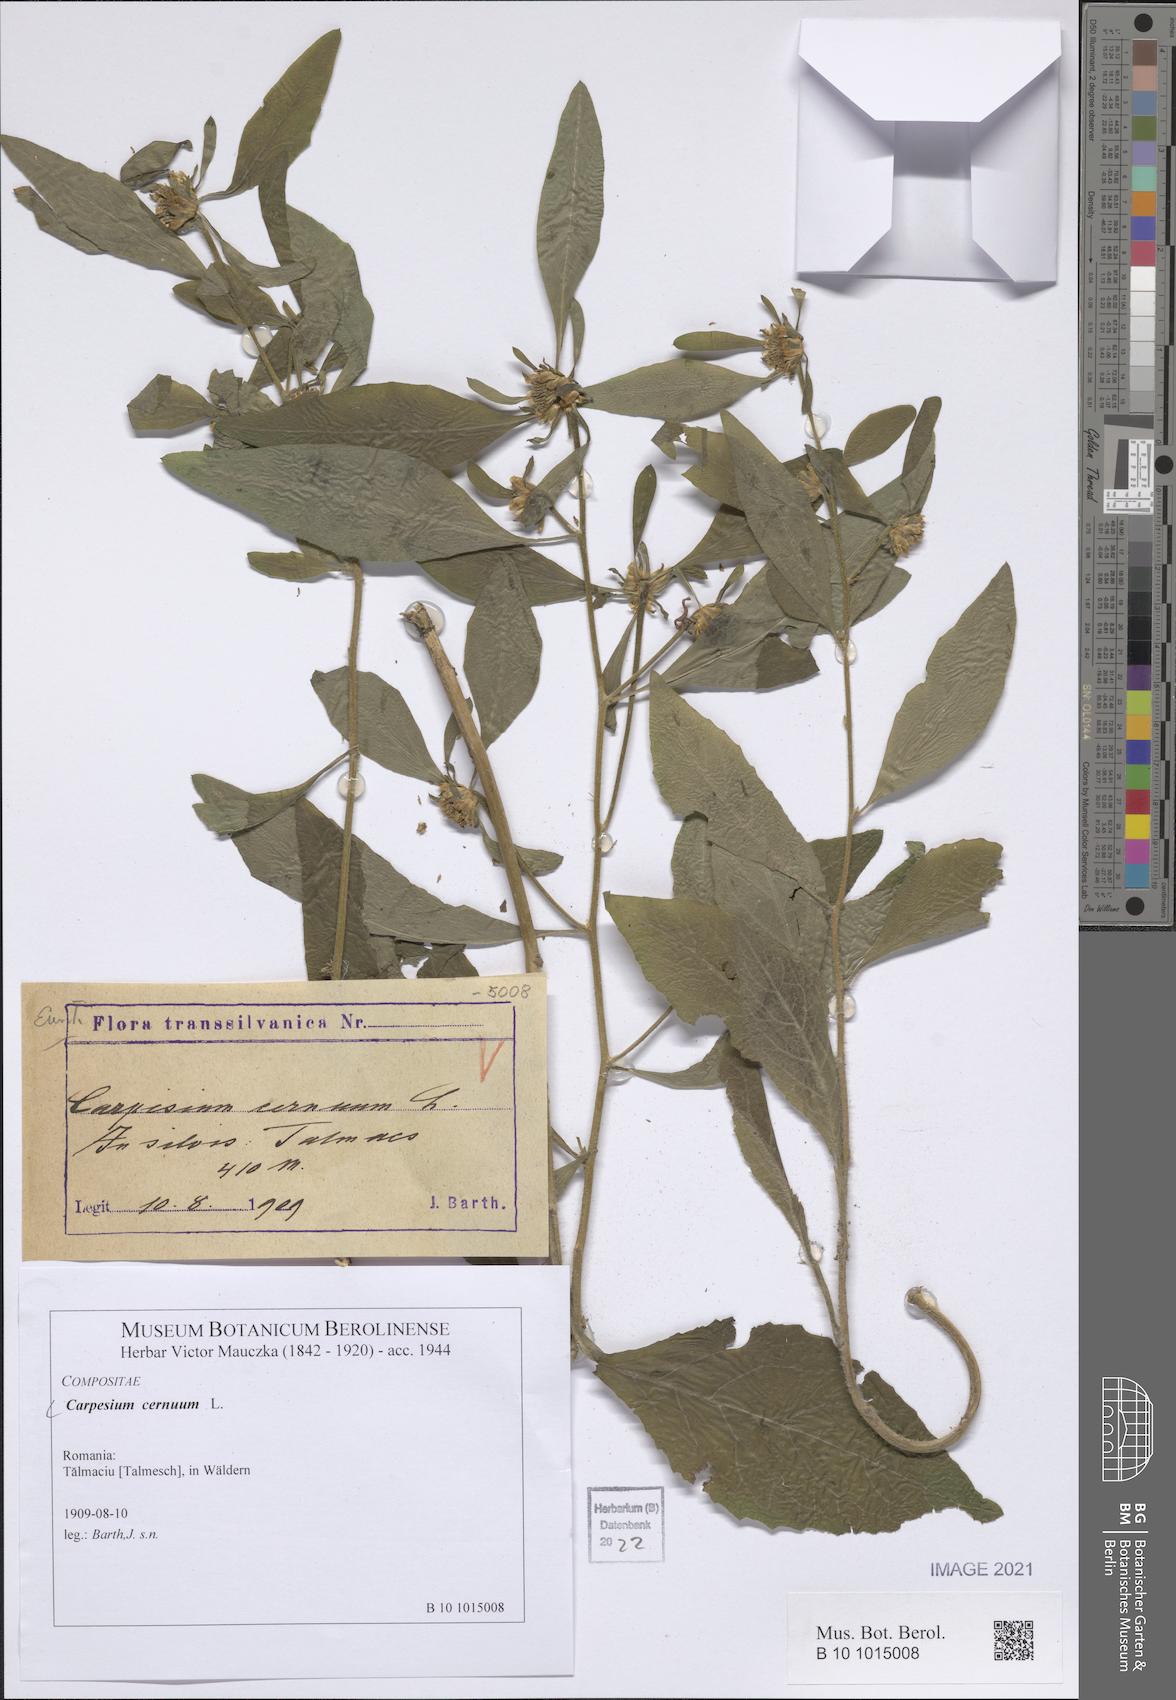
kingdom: Plantae
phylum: Tracheophyta
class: Magnoliopsida
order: Asterales
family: Asteraceae
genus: Carpesium
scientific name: Carpesium cernuum
